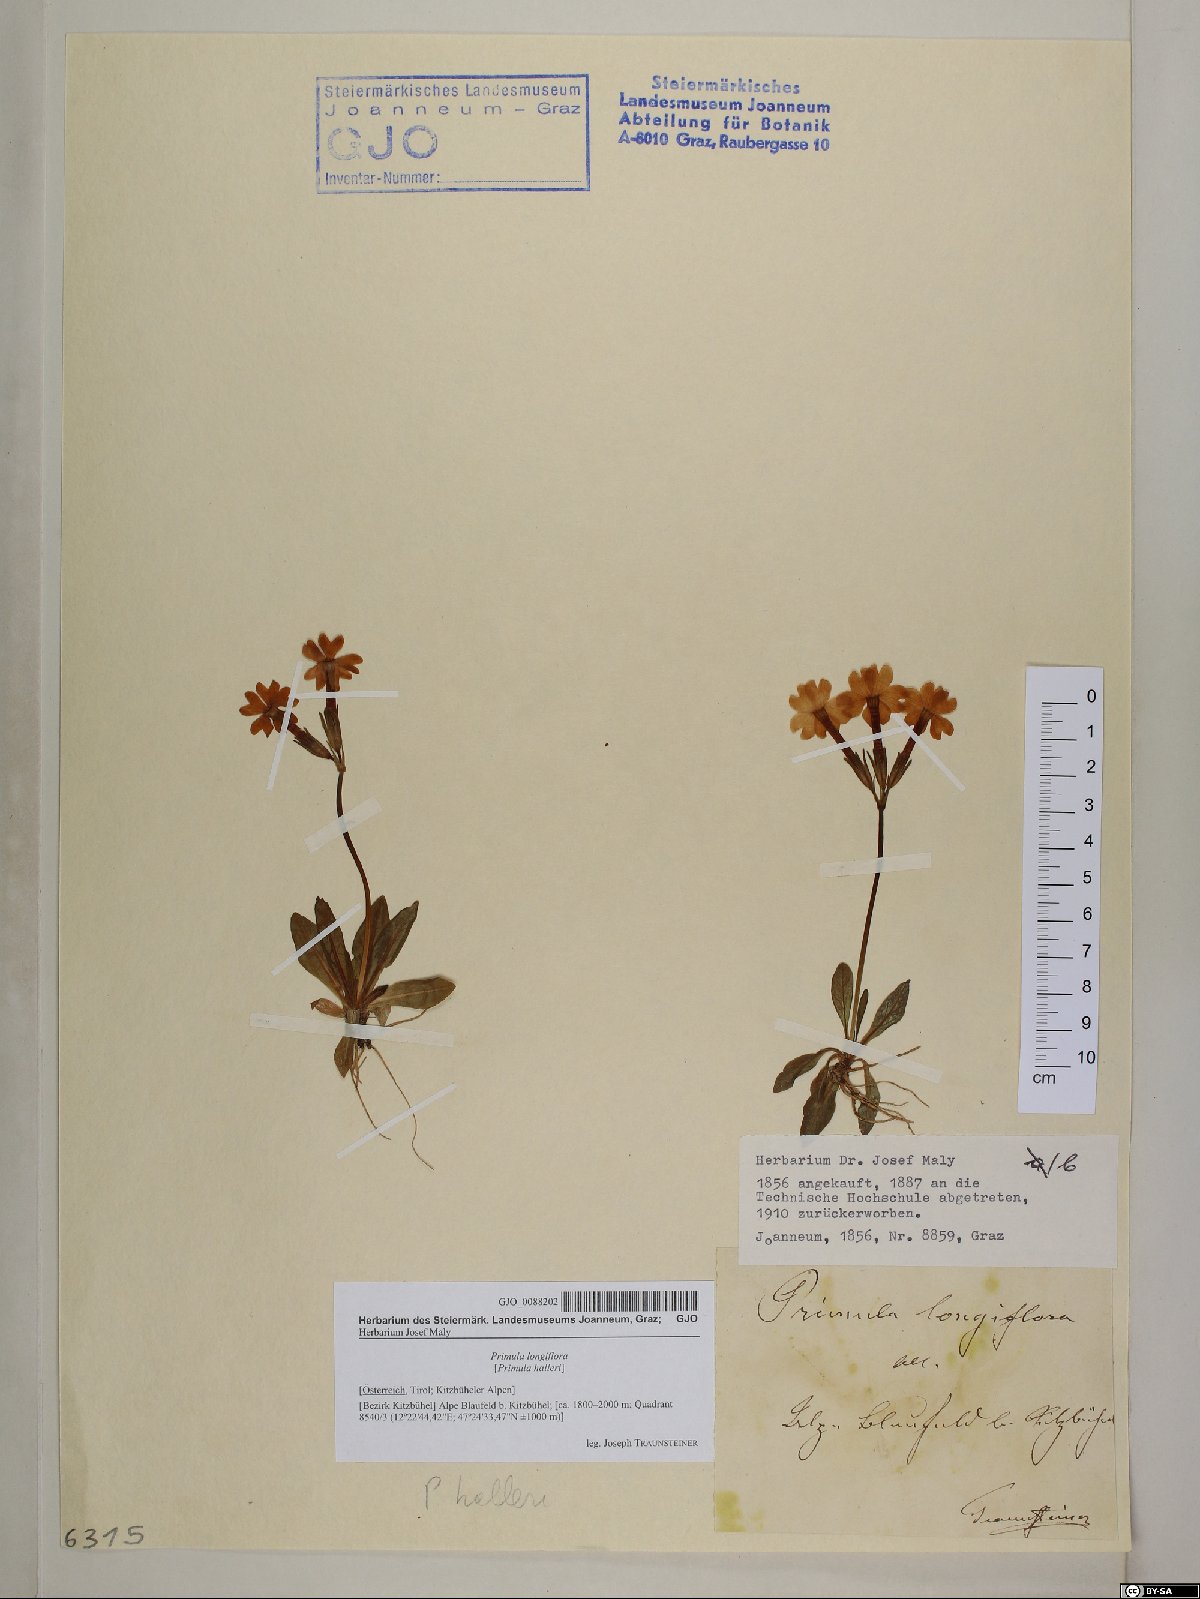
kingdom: Plantae
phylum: Tracheophyta
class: Magnoliopsida
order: Ericales
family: Primulaceae
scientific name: Primulaceae
